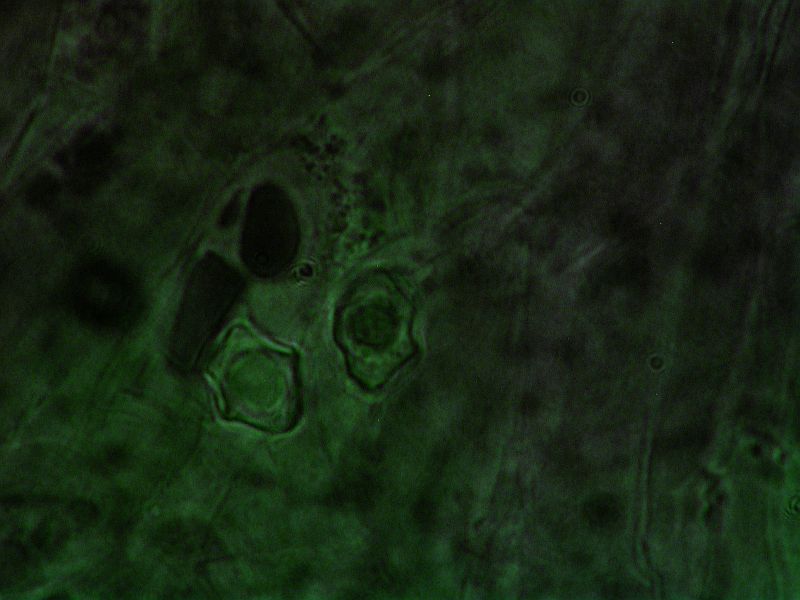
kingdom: Fungi
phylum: Basidiomycota
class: Agaricomycetes
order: Agaricales
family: Entolomataceae
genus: Entoloma
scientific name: Entoloma fernandae
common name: filtet rødblad
